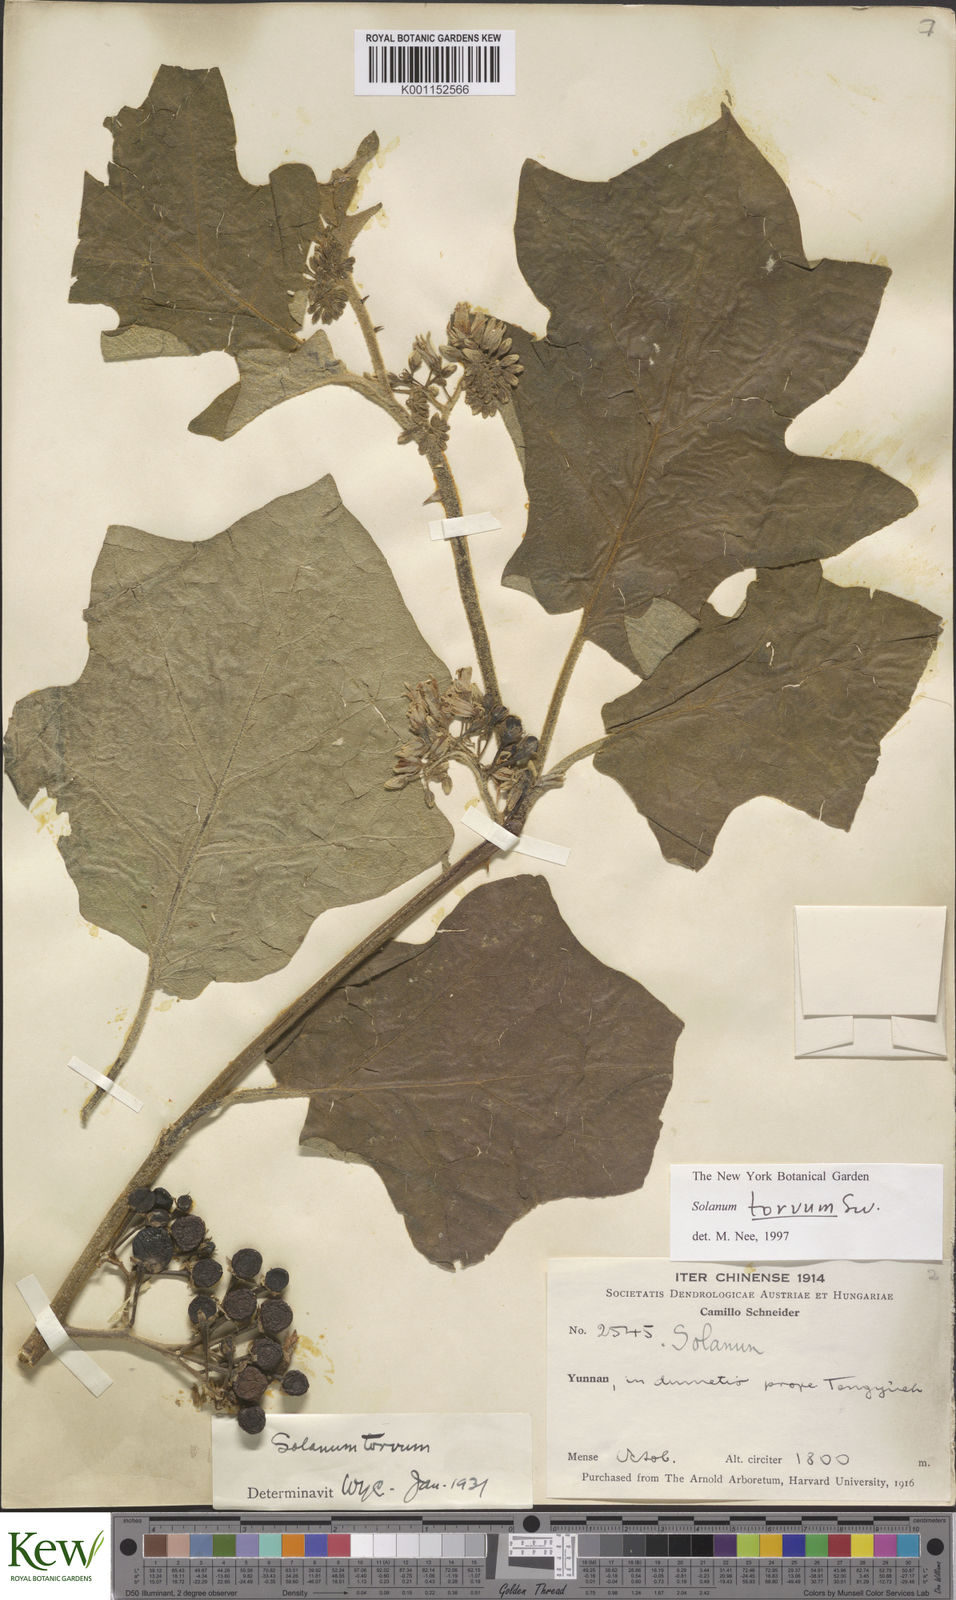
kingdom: Plantae
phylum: Tracheophyta
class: Magnoliopsida
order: Solanales
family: Solanaceae
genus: Solanum
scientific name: Solanum torvum
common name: Turkey berry
